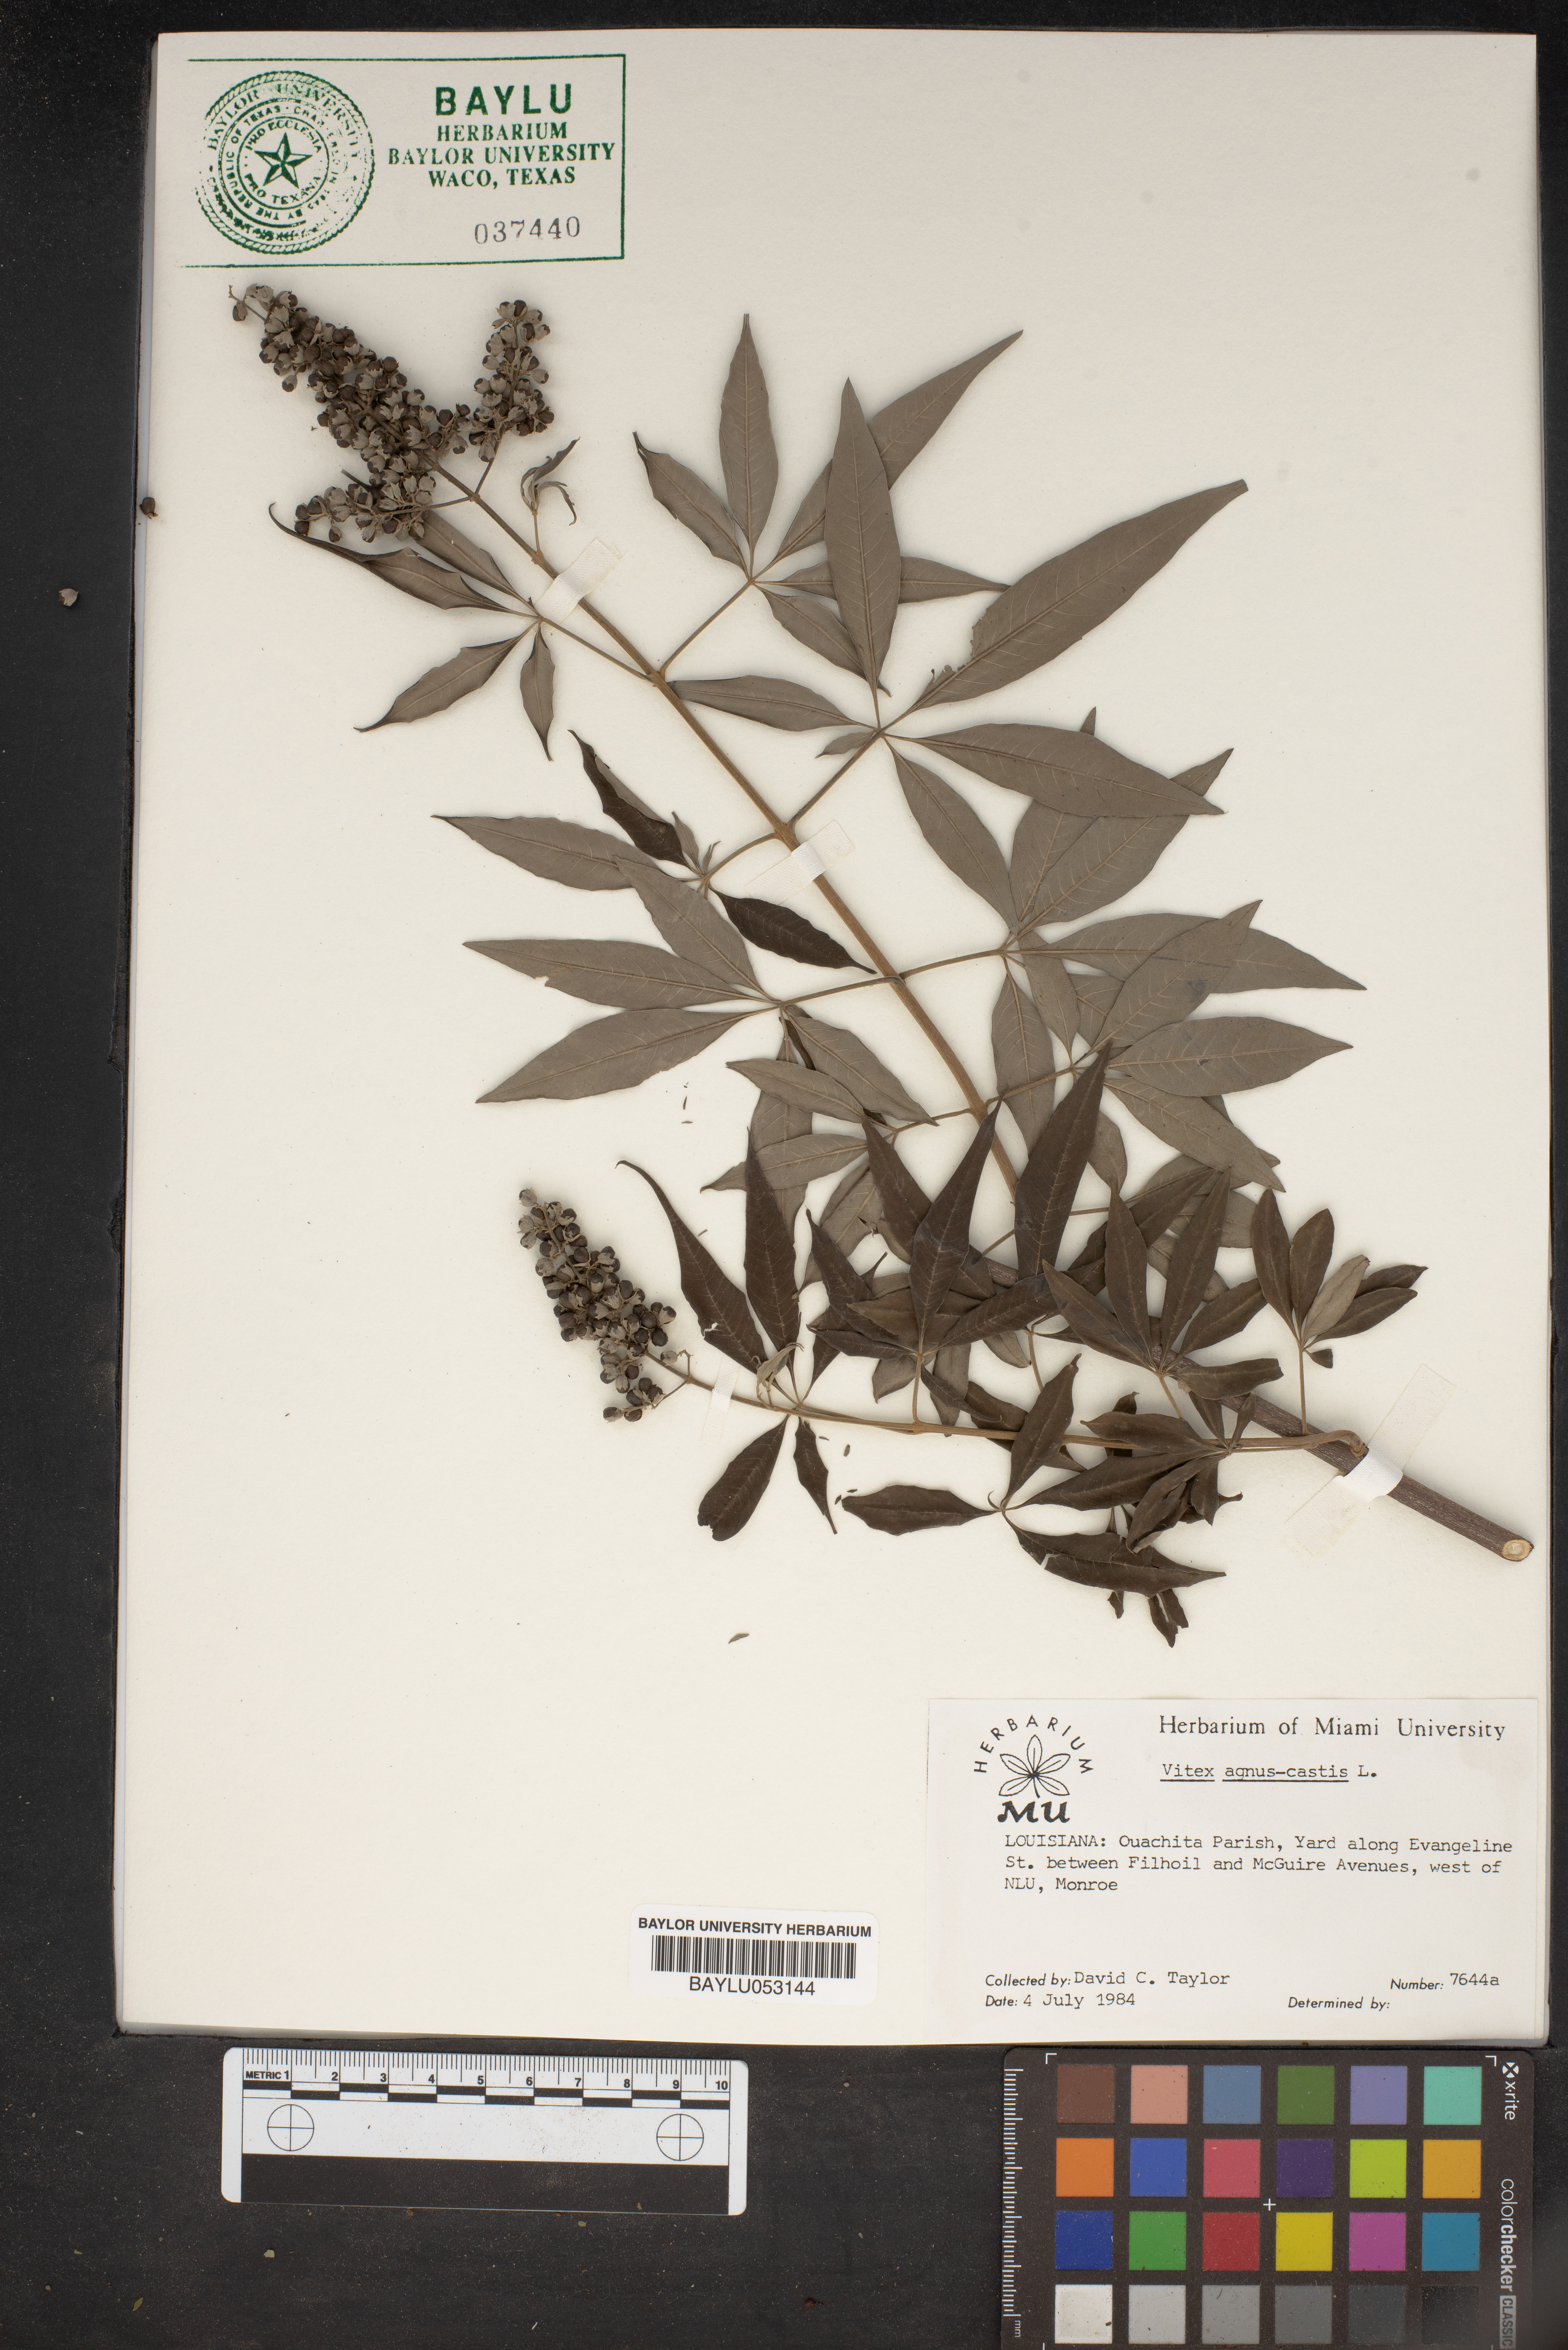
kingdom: Plantae
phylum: Tracheophyta
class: Magnoliopsida
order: Lamiales
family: Lamiaceae
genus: Vitex
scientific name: Vitex agnus-castus
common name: Chasteberry
